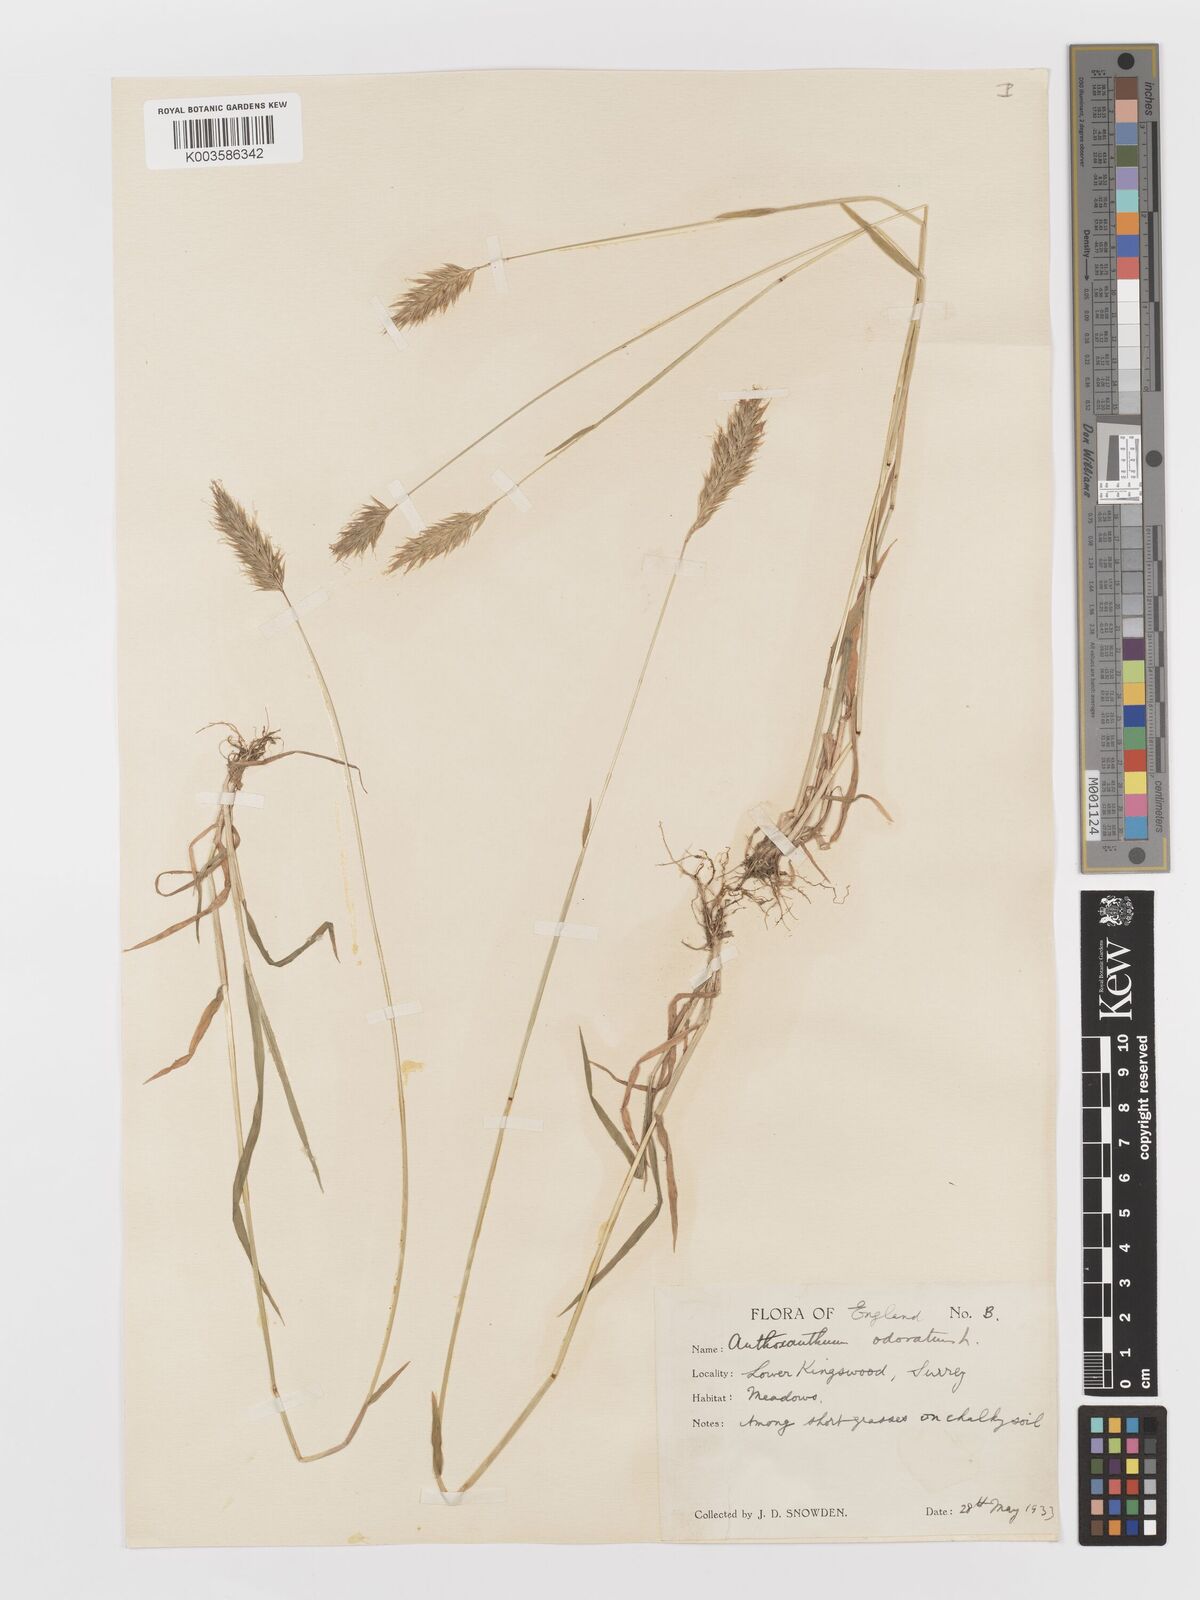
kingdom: Plantae
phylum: Tracheophyta
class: Liliopsida
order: Poales
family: Poaceae
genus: Anthoxanthum
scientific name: Anthoxanthum odoratum
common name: Sweet vernalgrass
